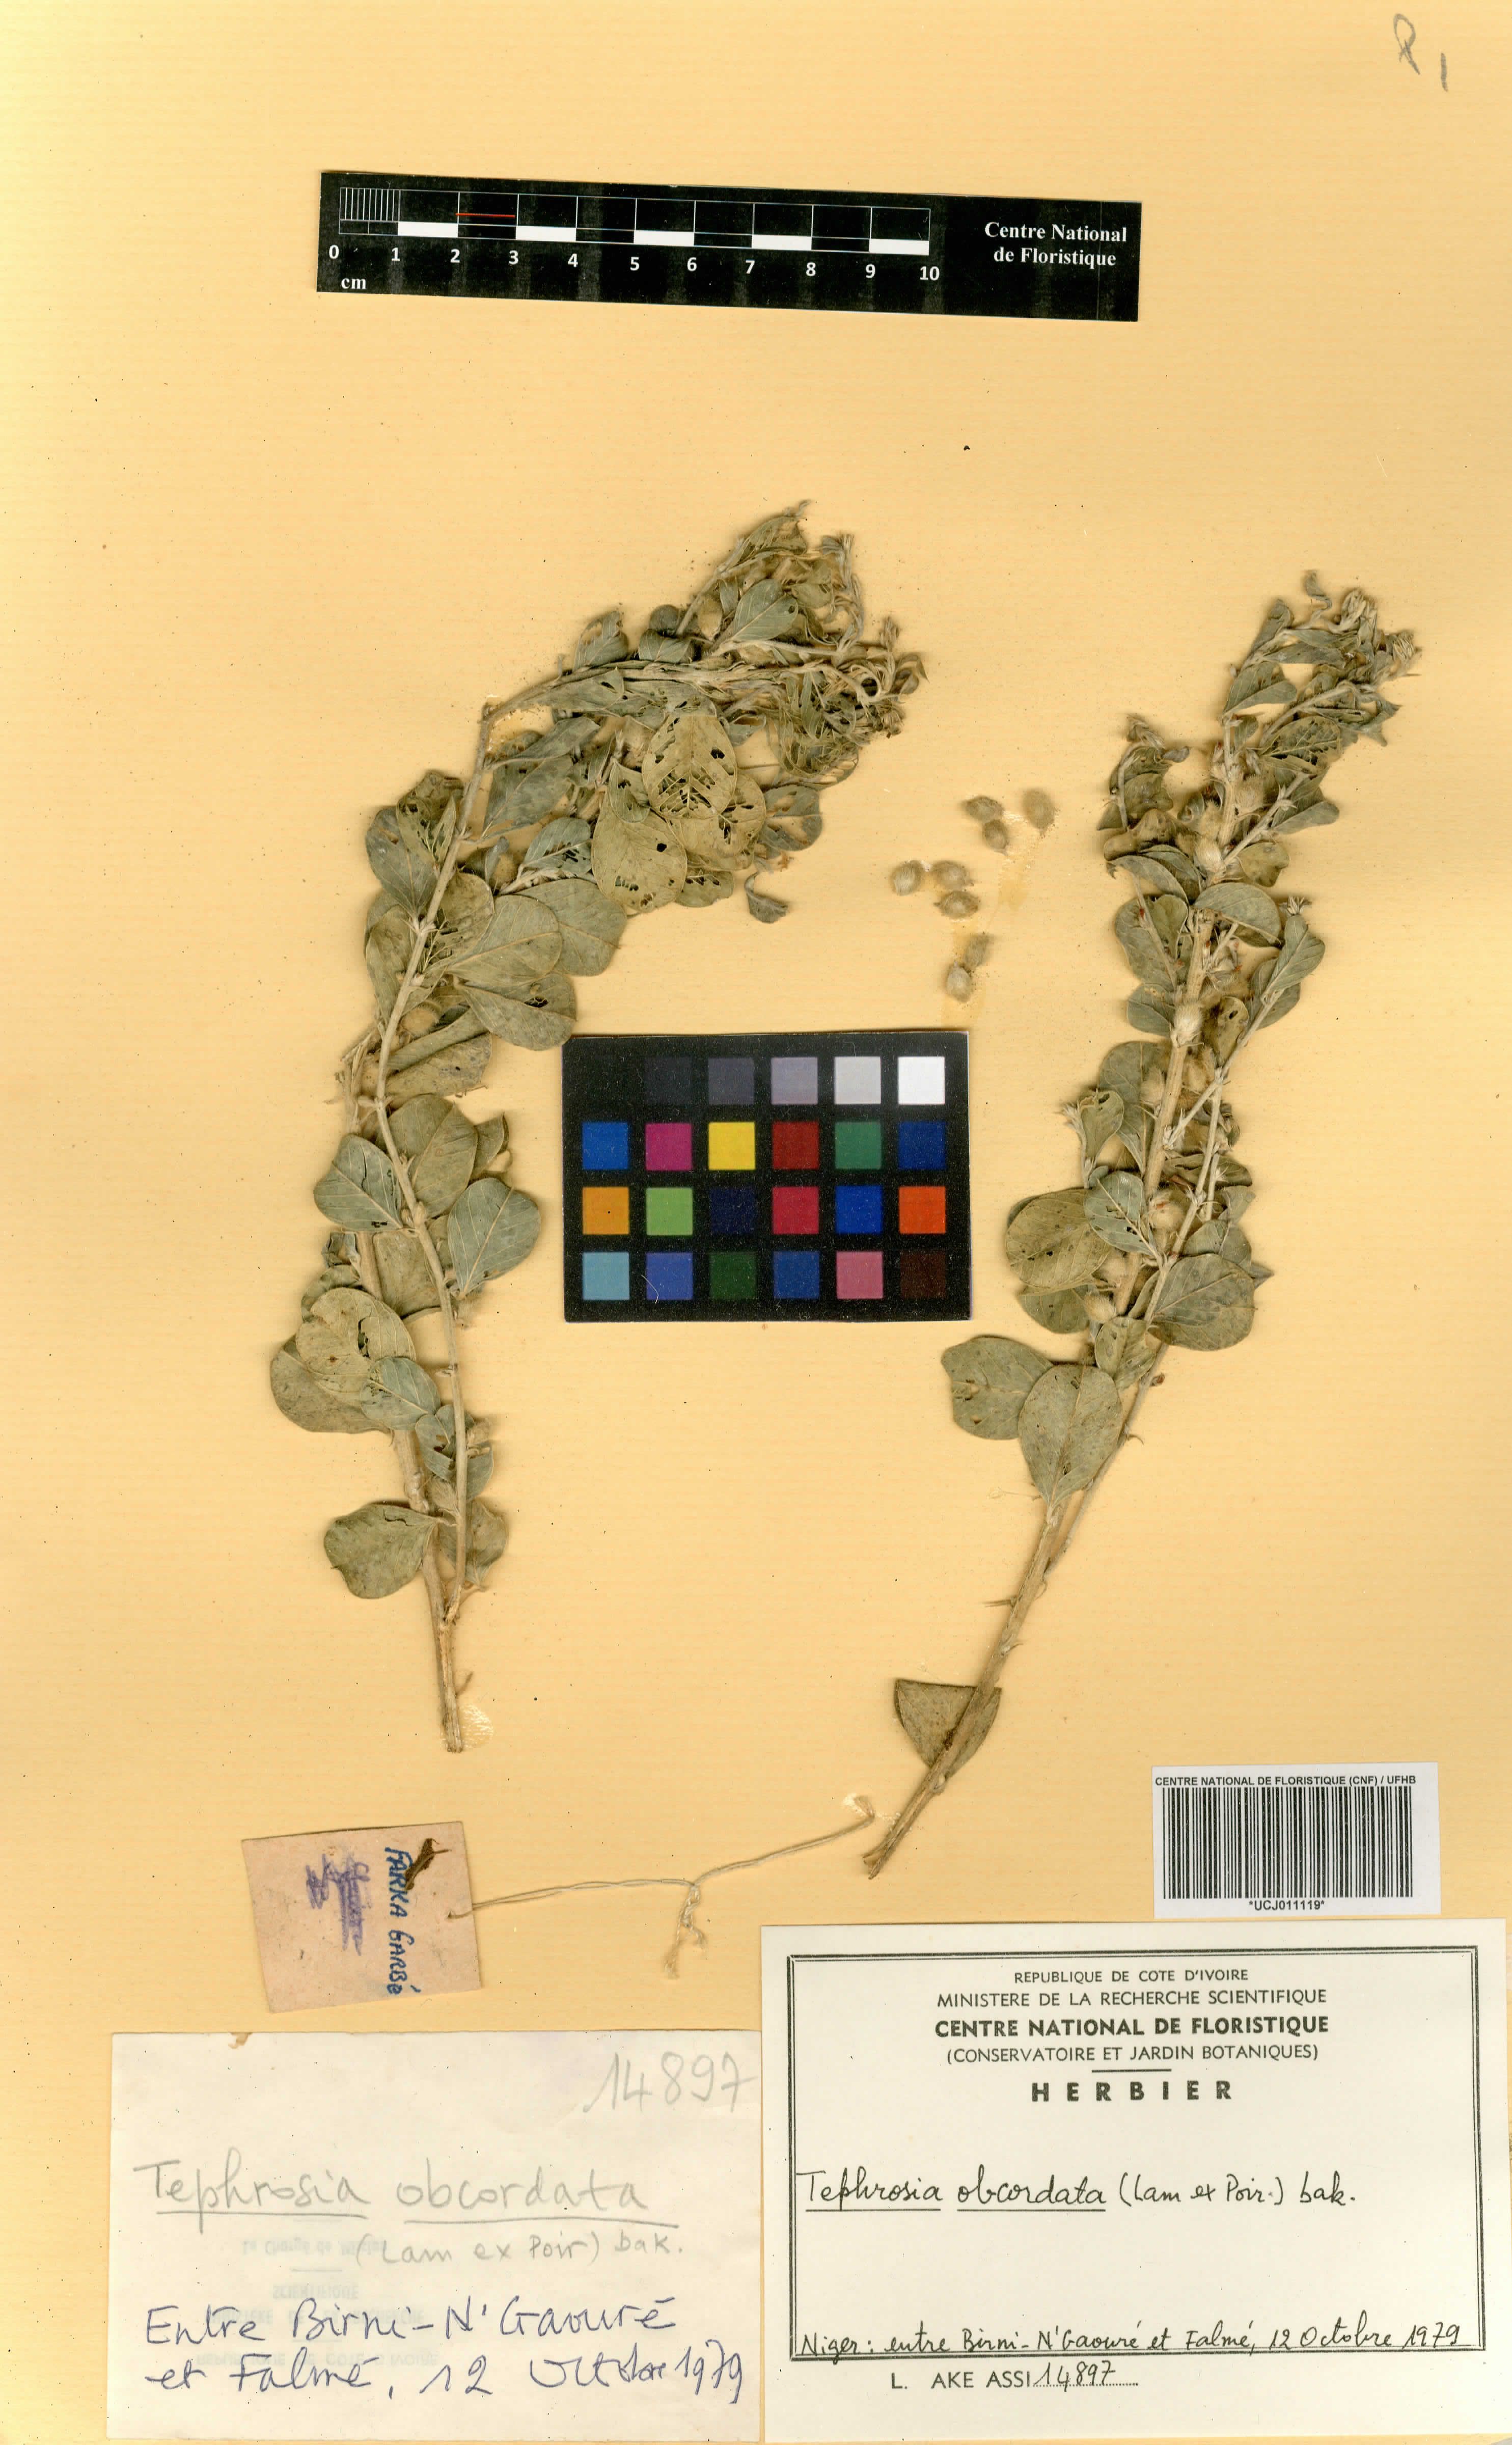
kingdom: Plantae
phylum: Tracheophyta
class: Magnoliopsida
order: Fabales
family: Fabaceae
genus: Tephrosia
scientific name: Tephrosia obcordata
